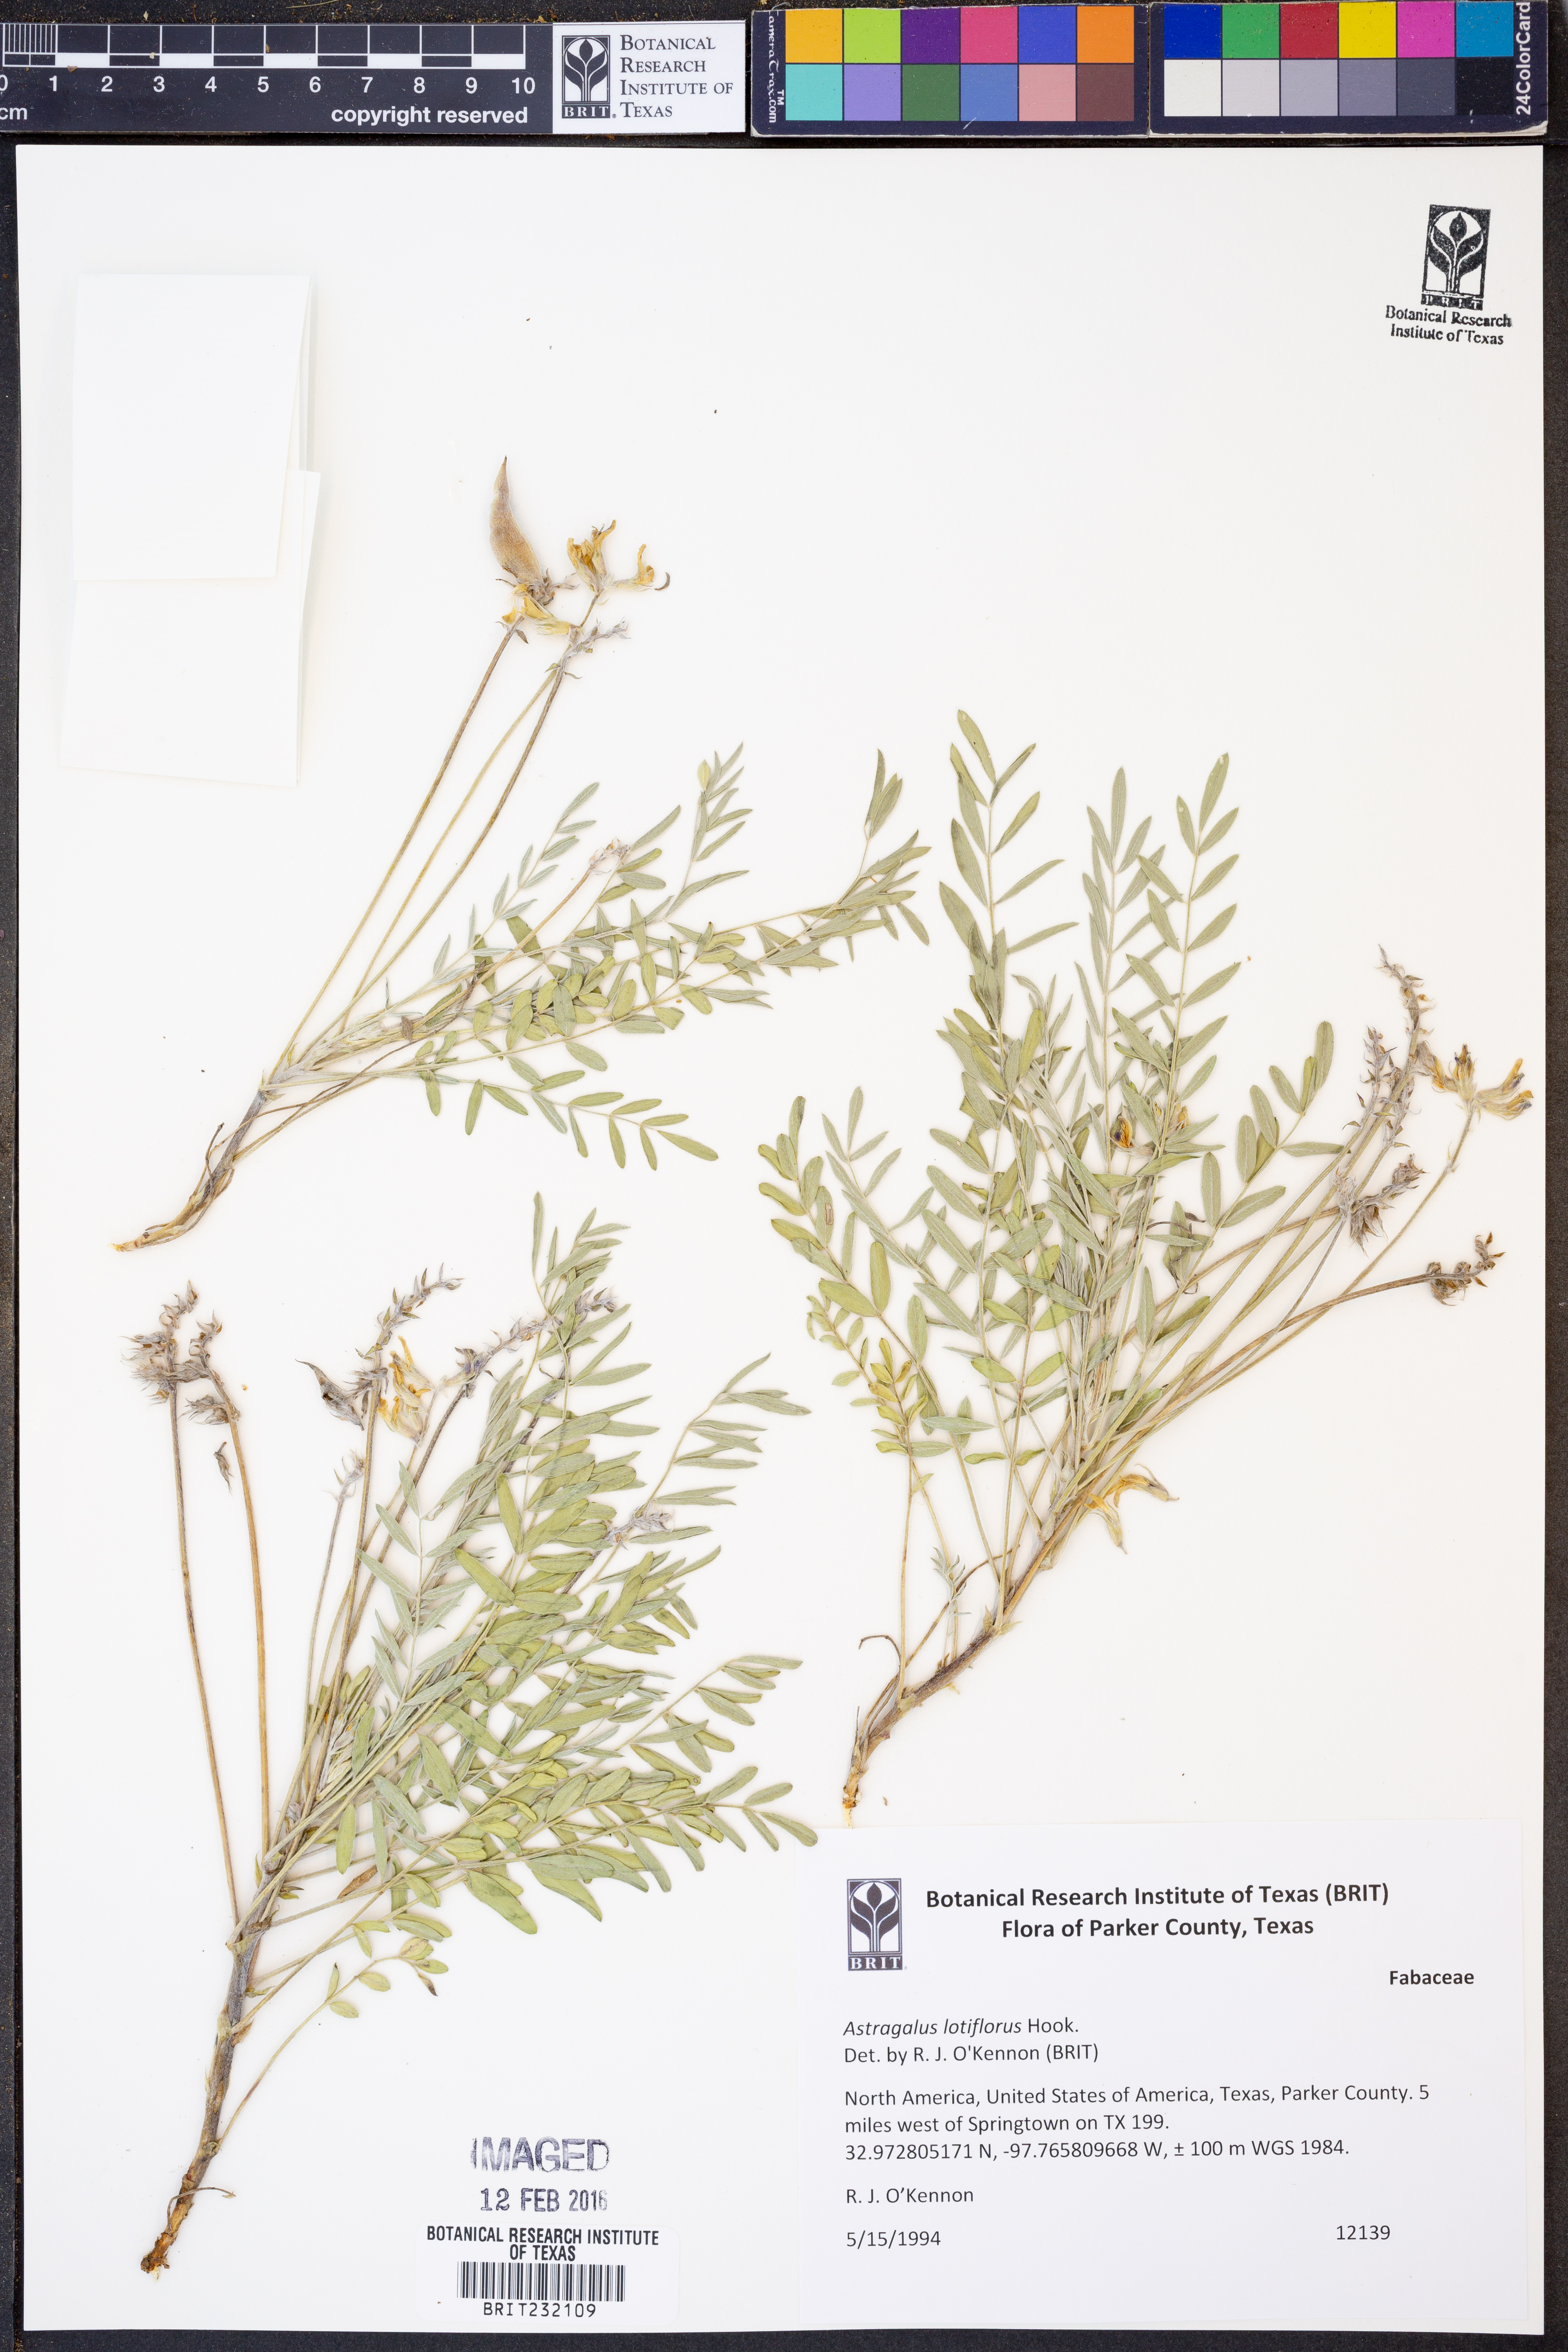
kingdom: Plantae
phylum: Tracheophyta
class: Magnoliopsida
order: Fabales
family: Fabaceae
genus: Astragalus
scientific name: Astragalus lotiflorus
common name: Lotus milk-vetch
